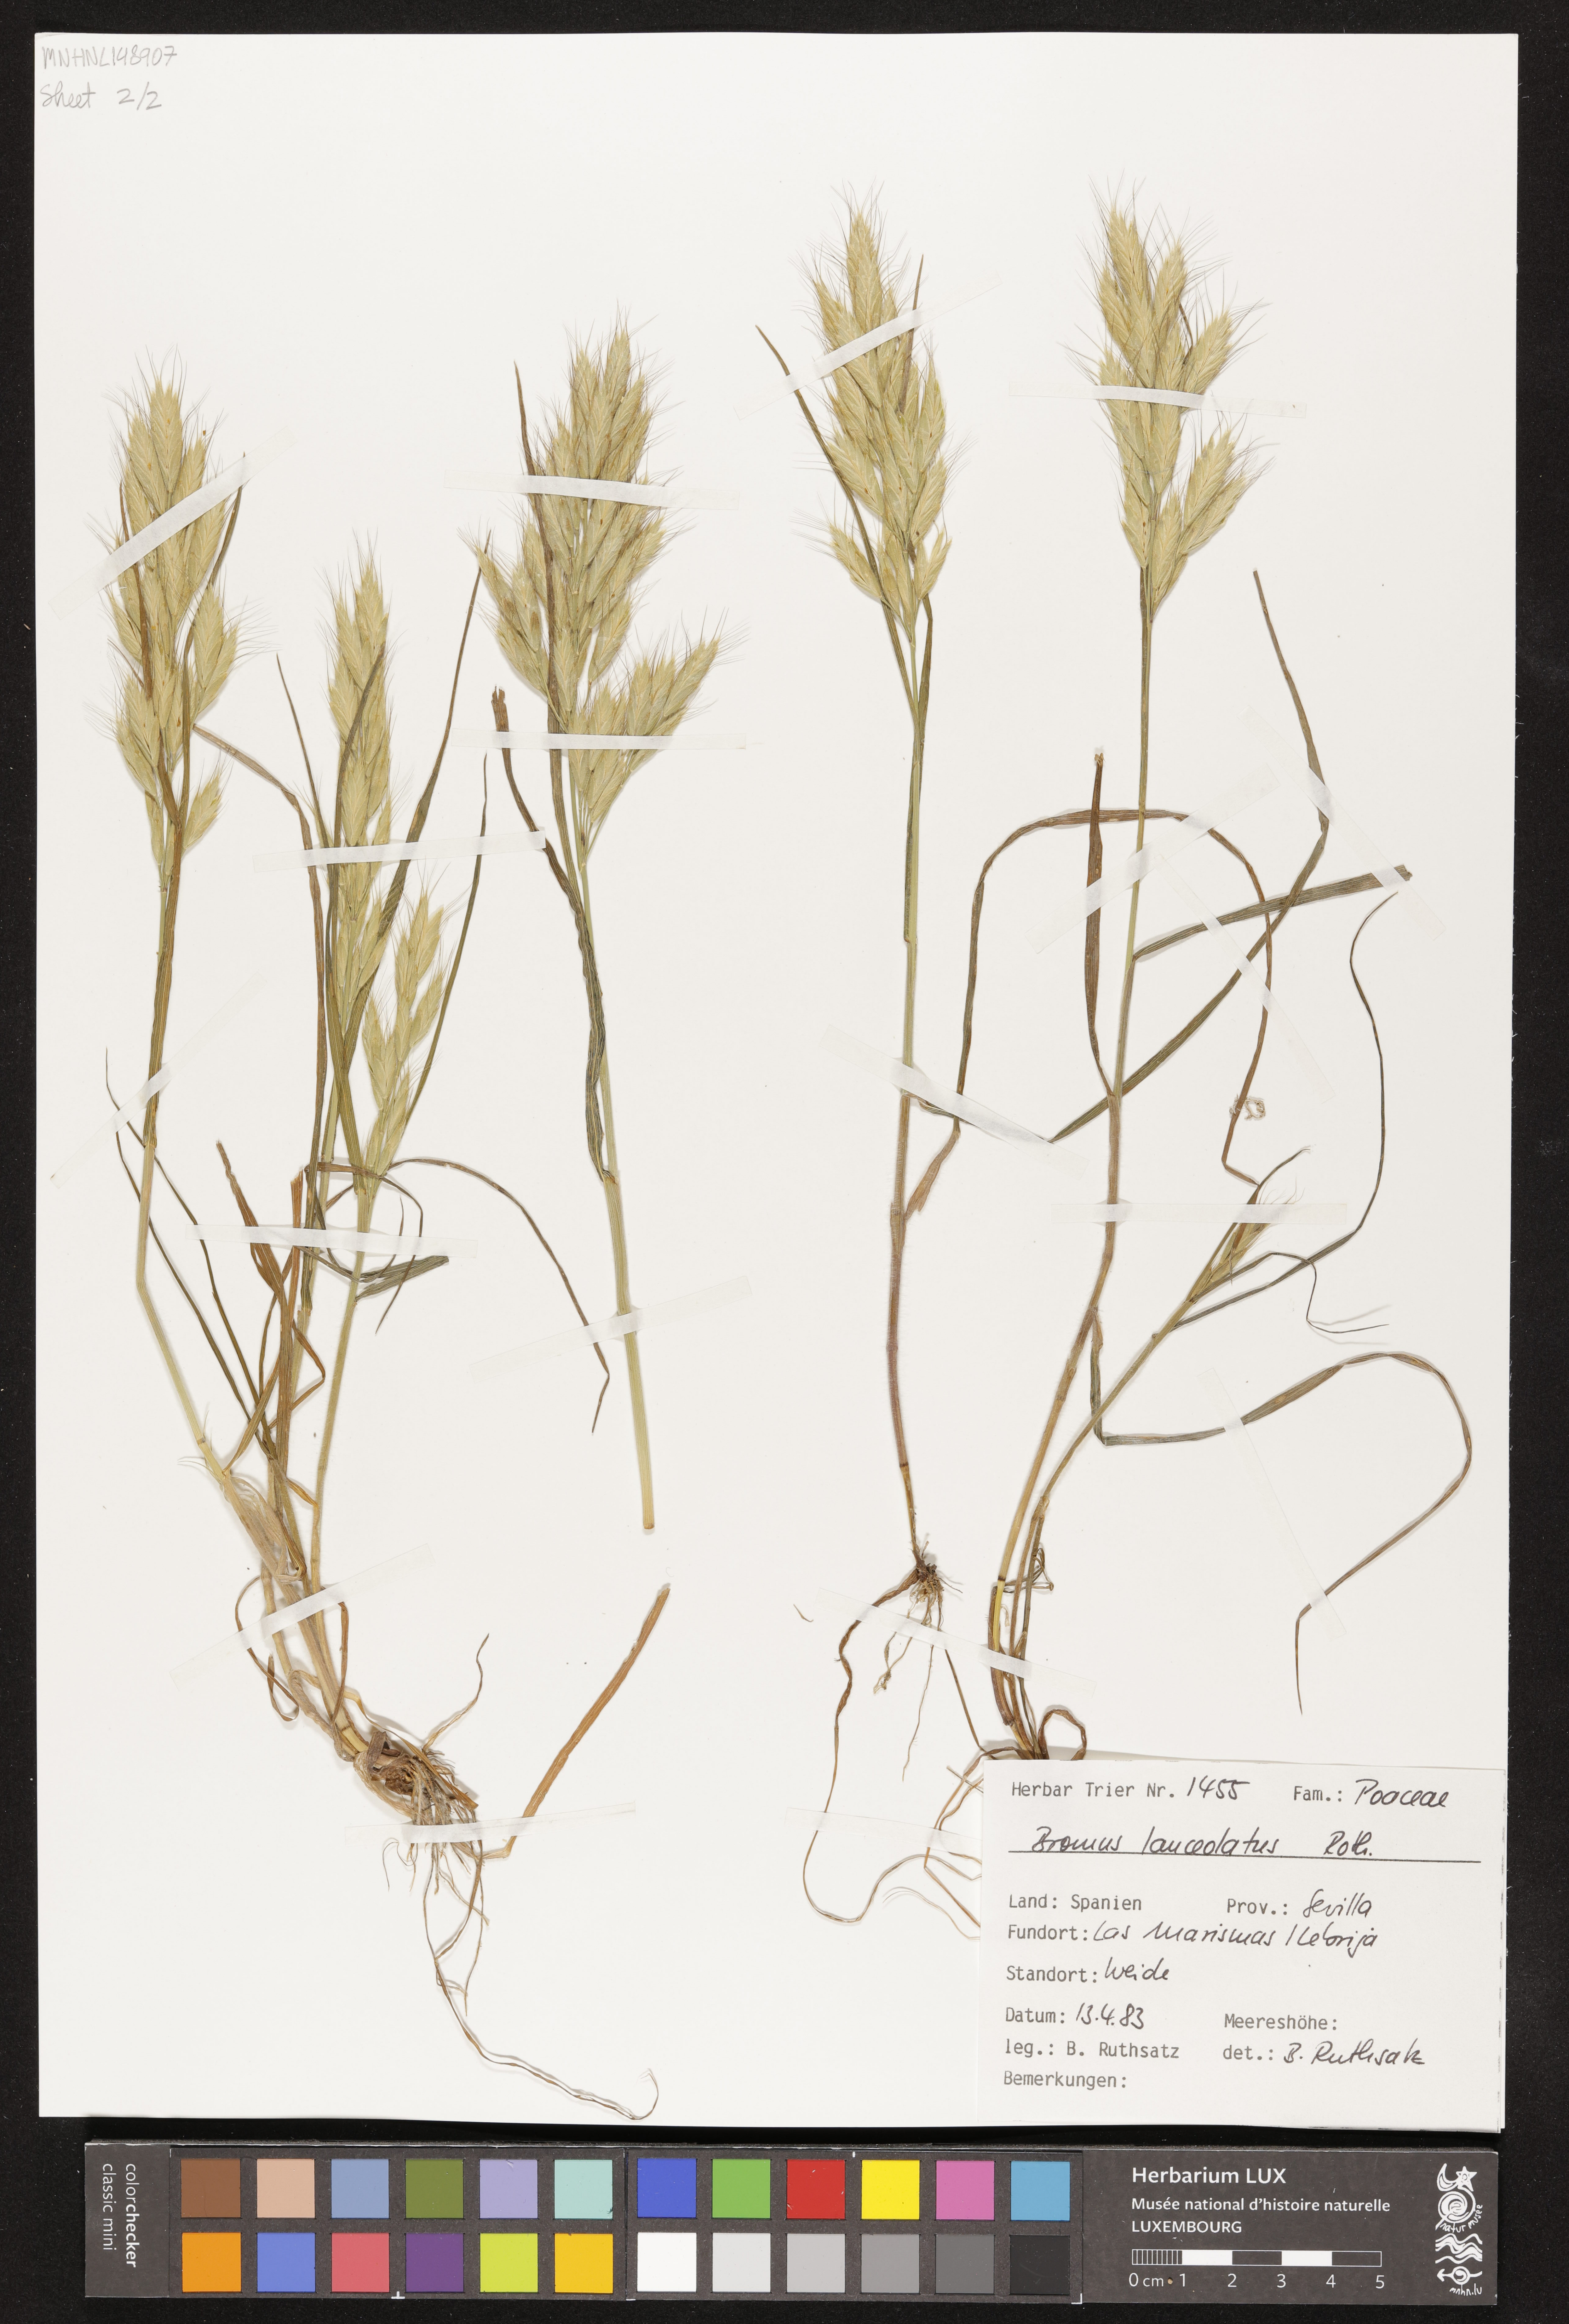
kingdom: Plantae
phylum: Tracheophyta
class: Liliopsida
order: Poales
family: Poaceae
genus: Bromus
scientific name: Bromus lanceolatus
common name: Mediterranean brome
